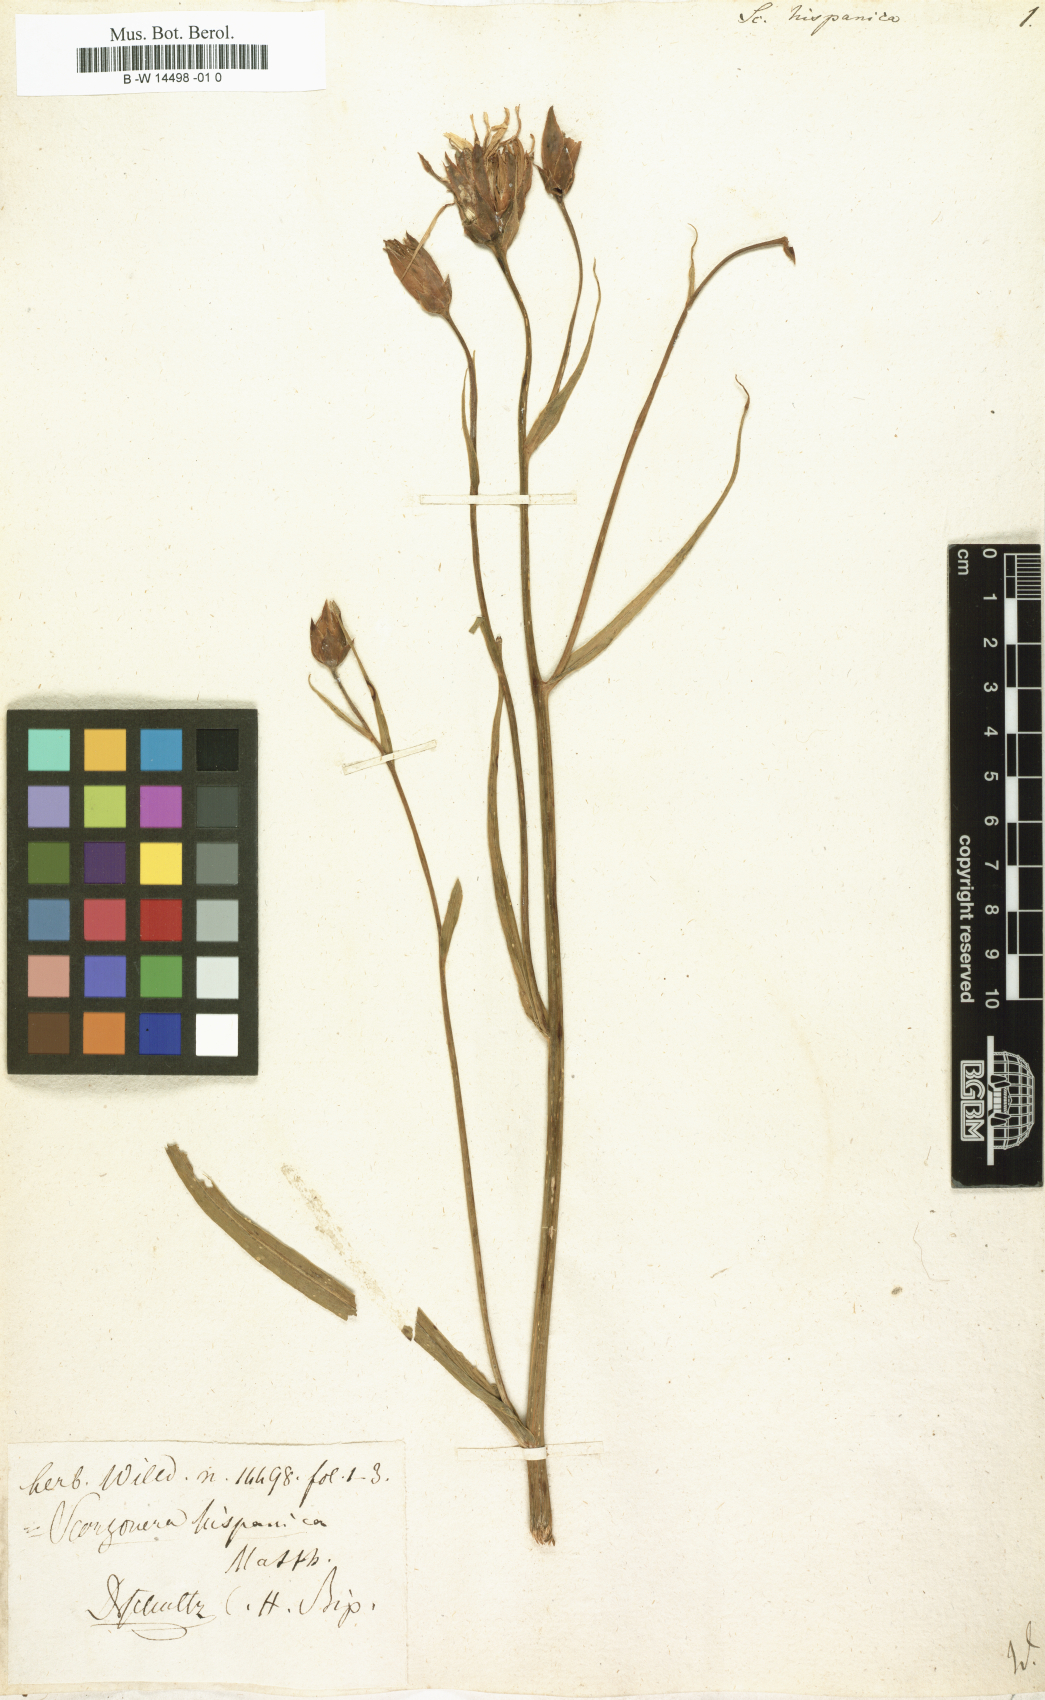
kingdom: Plantae
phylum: Tracheophyta
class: Magnoliopsida
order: Asterales
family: Asteraceae
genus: Pseudopodospermum
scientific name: Pseudopodospermum hispanicum
